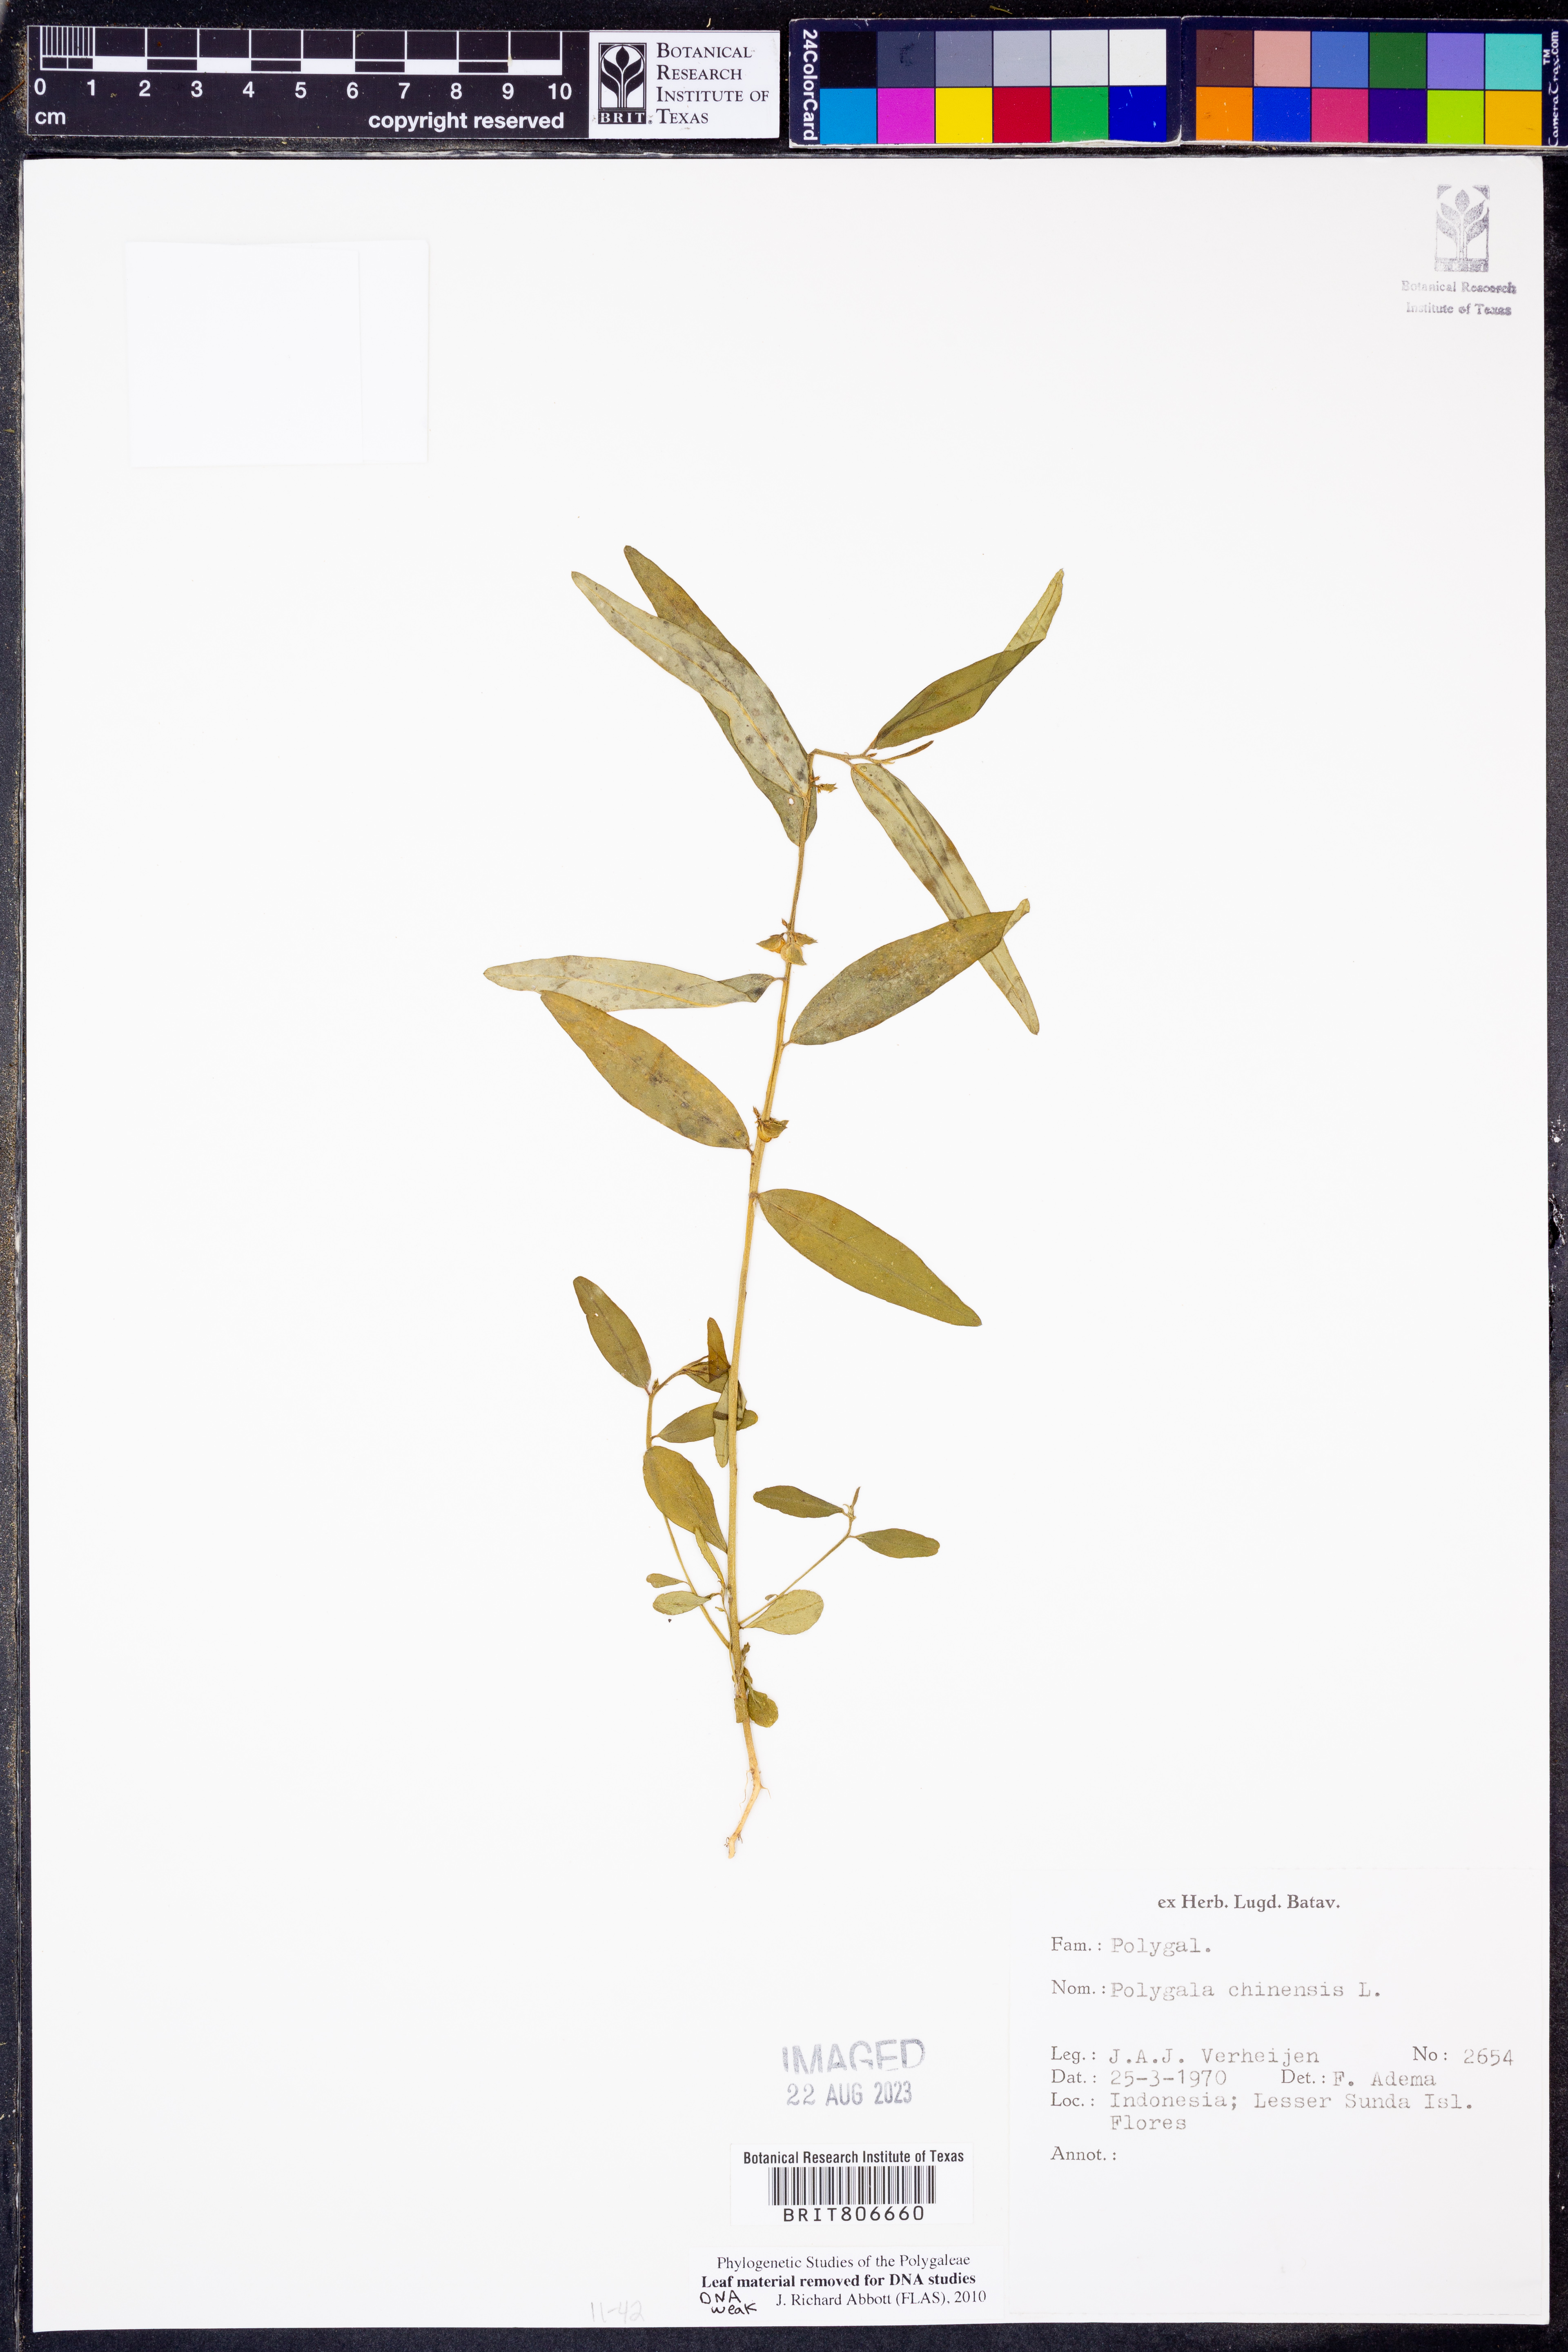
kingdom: Plantae
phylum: Tracheophyta
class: Magnoliopsida
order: Fabales
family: Polygalaceae
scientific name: Polygalaceae
